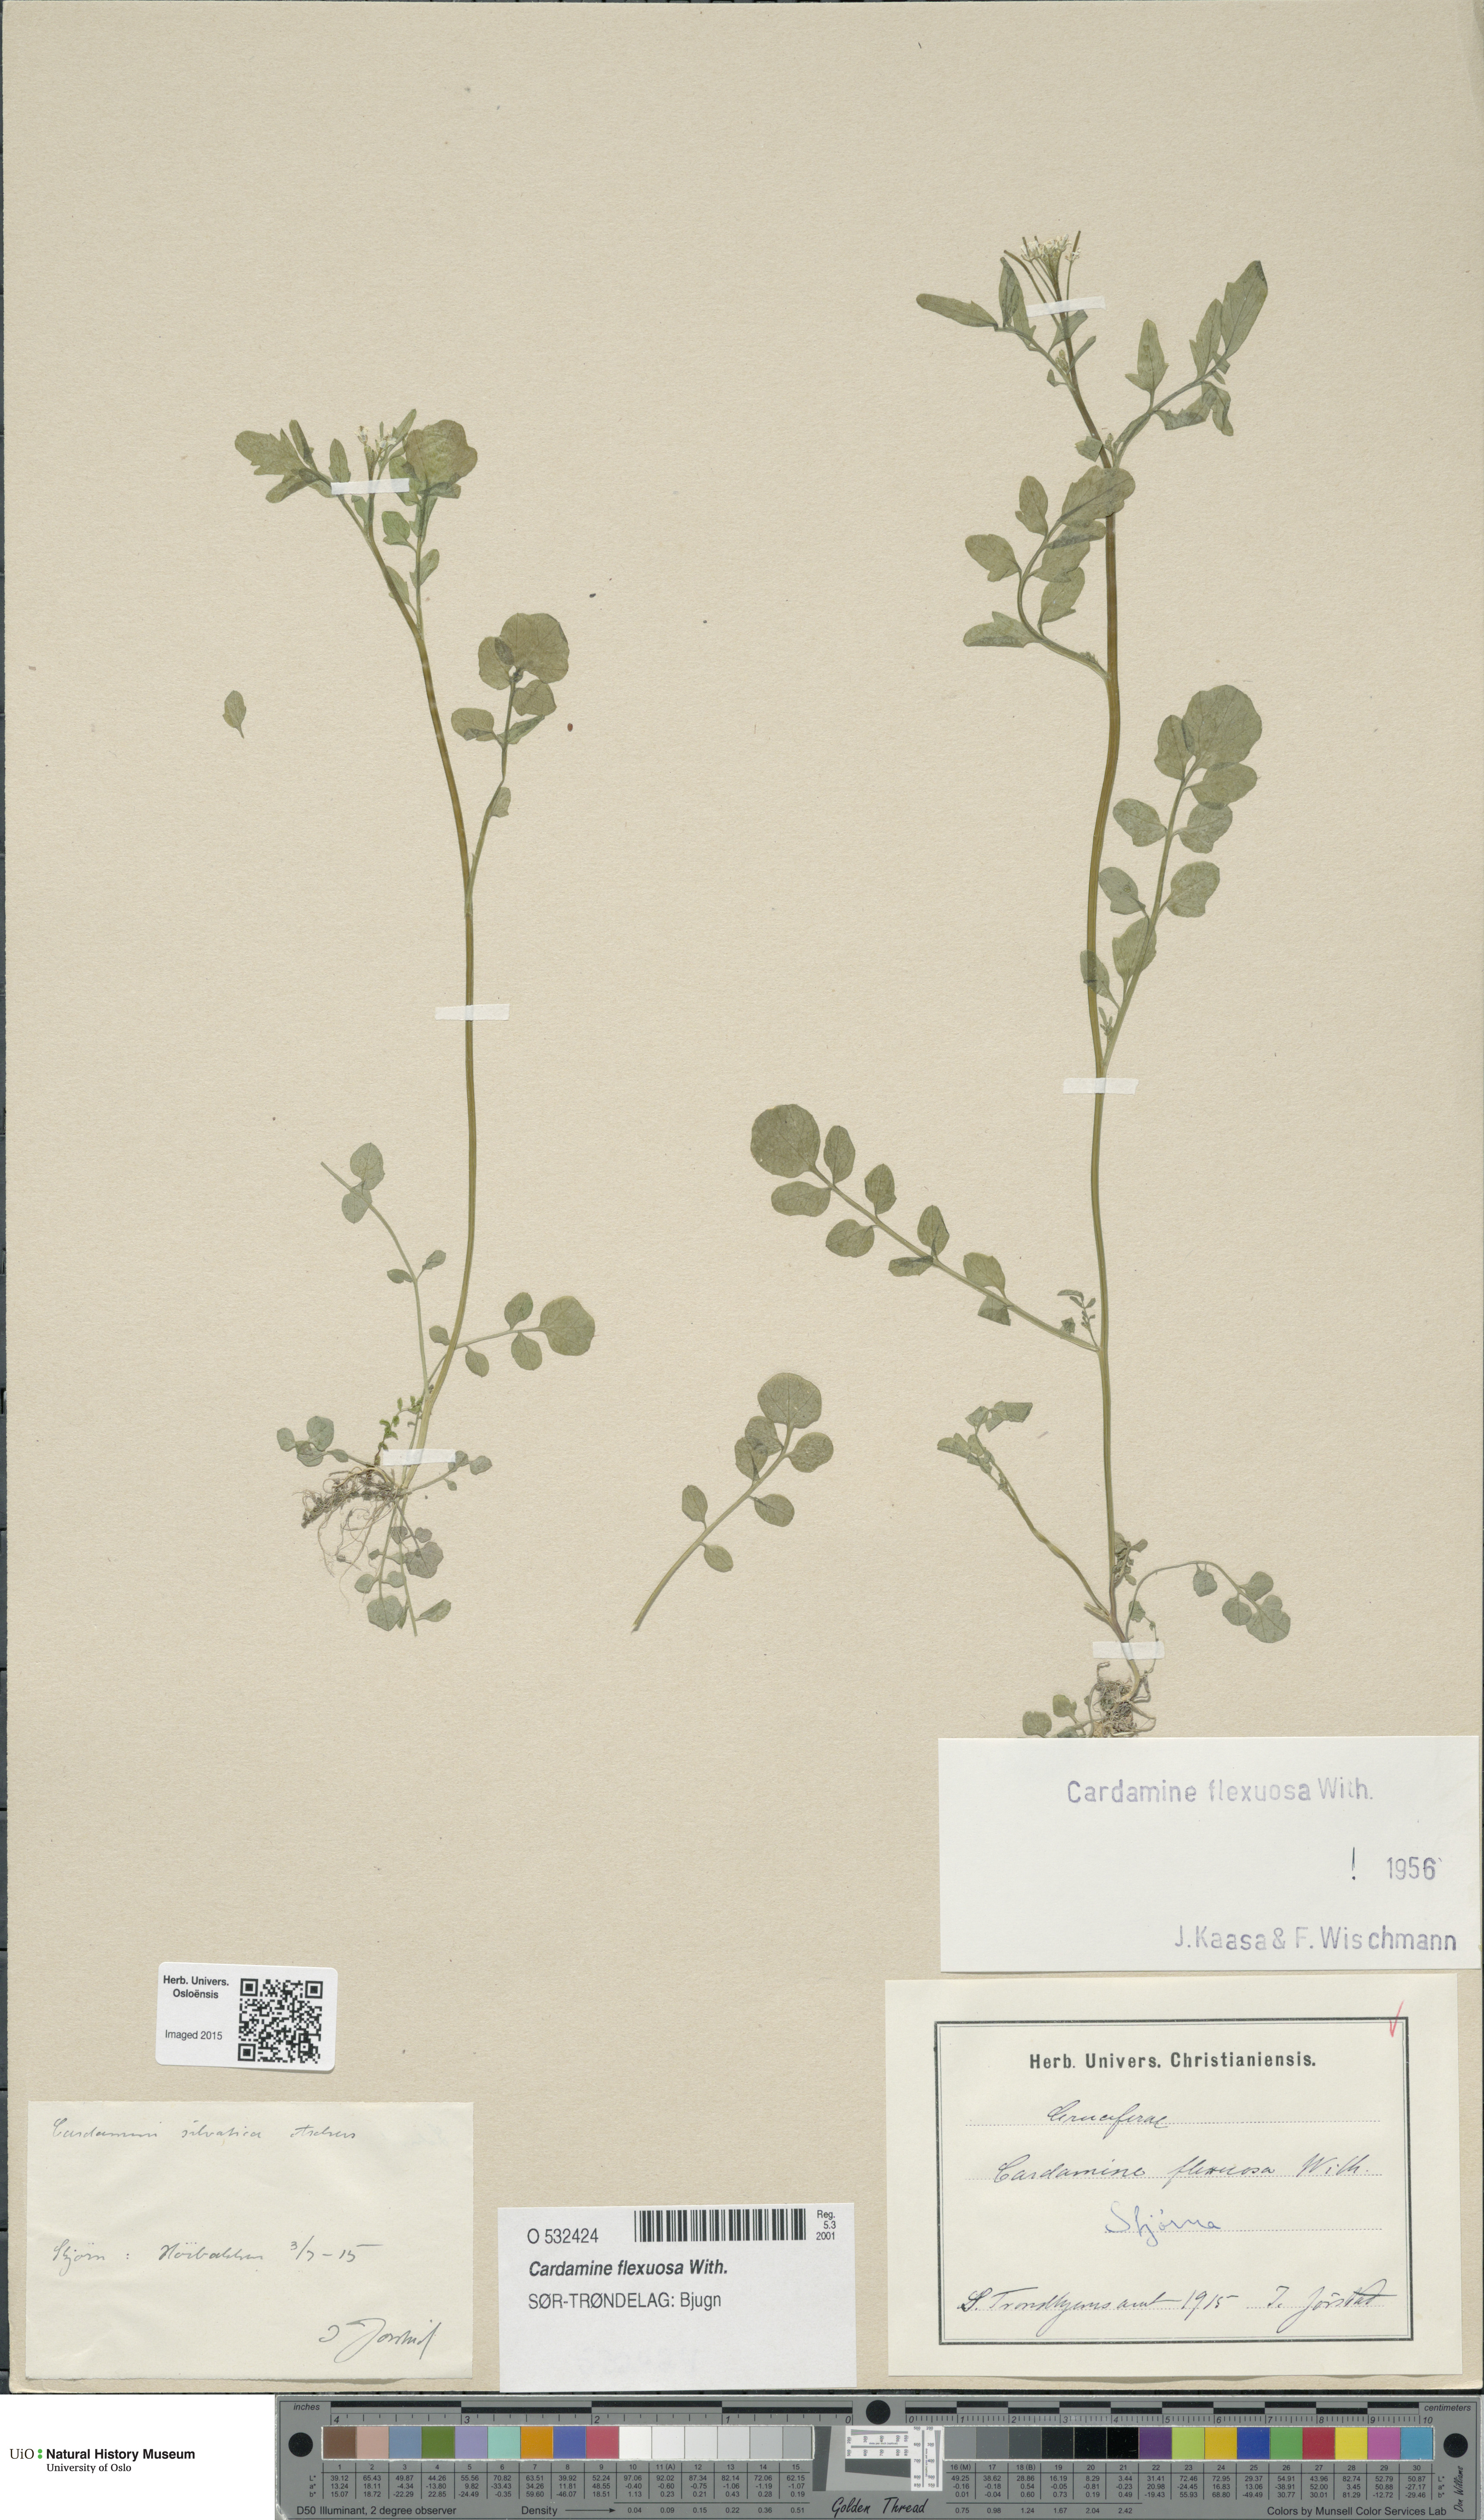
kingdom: Plantae
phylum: Tracheophyta
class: Magnoliopsida
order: Brassicales
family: Brassicaceae
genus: Cardamine
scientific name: Cardamine flexuosa
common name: Woodland bittercress
